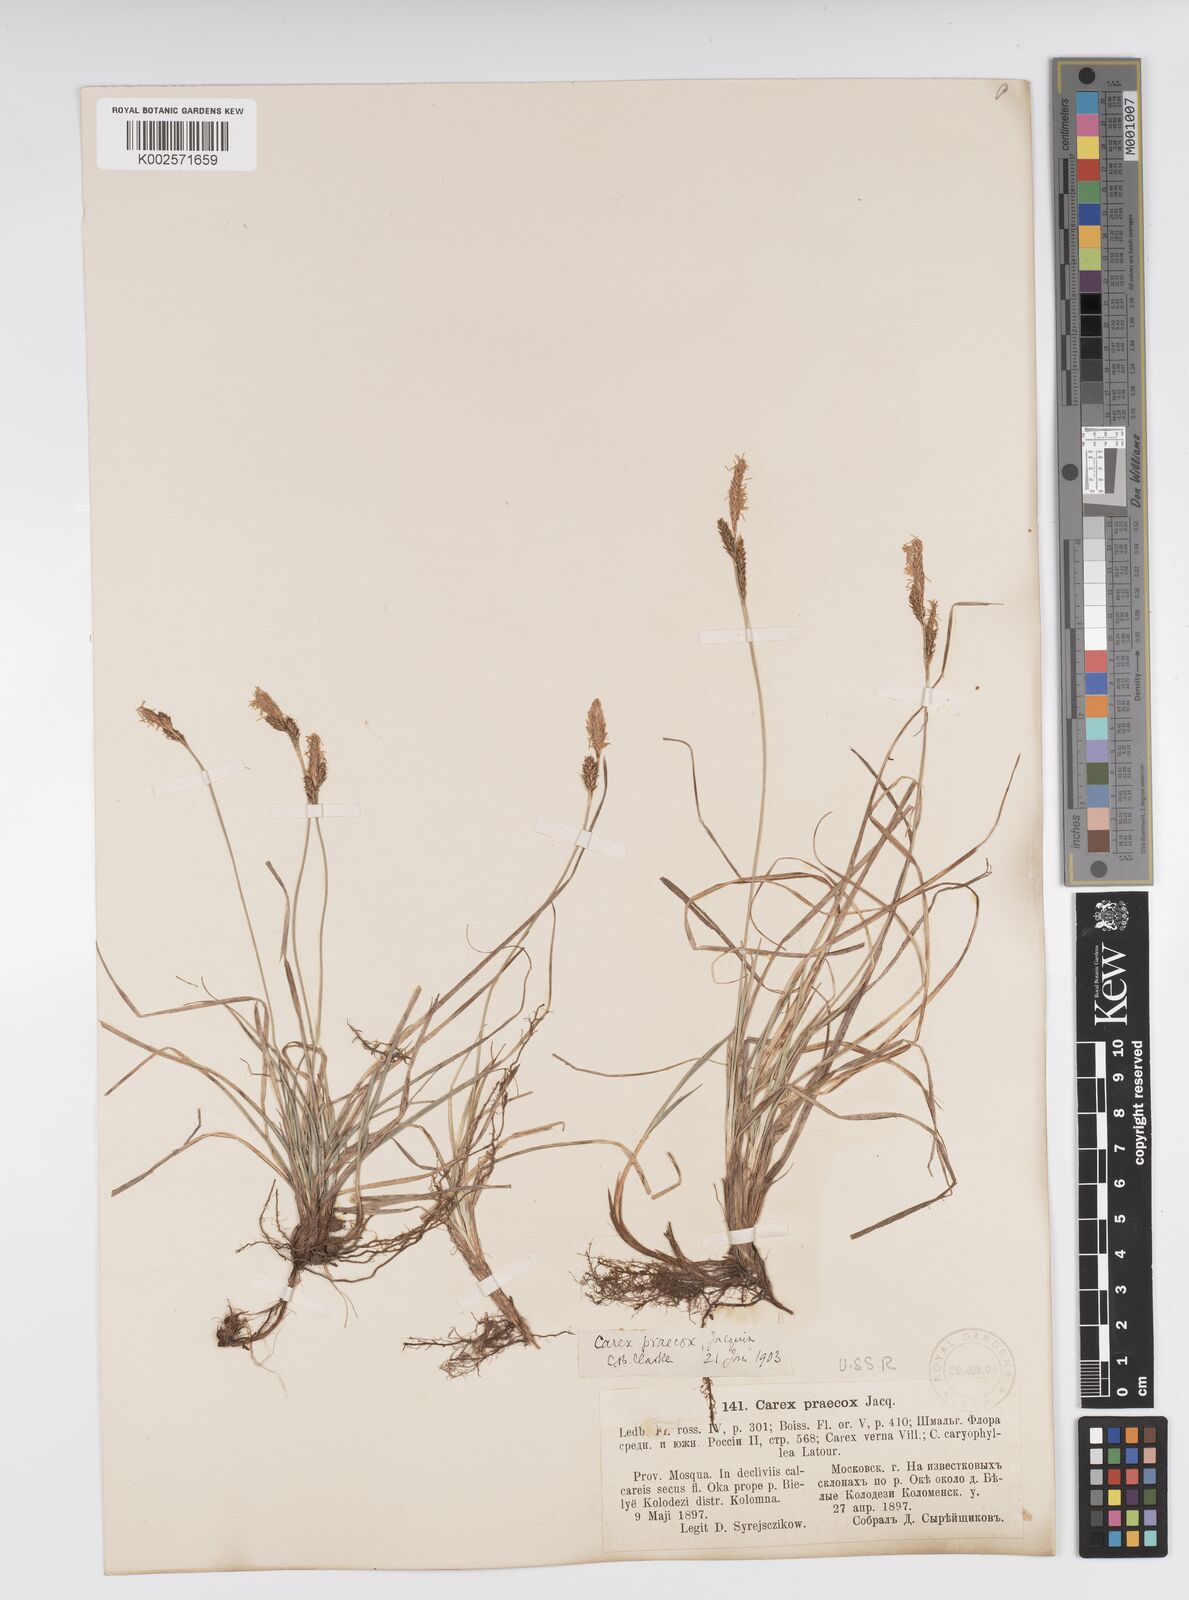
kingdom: Plantae
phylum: Tracheophyta
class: Liliopsida
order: Poales
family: Cyperaceae
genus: Carex
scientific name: Carex caryophyllea
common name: Spring sedge
